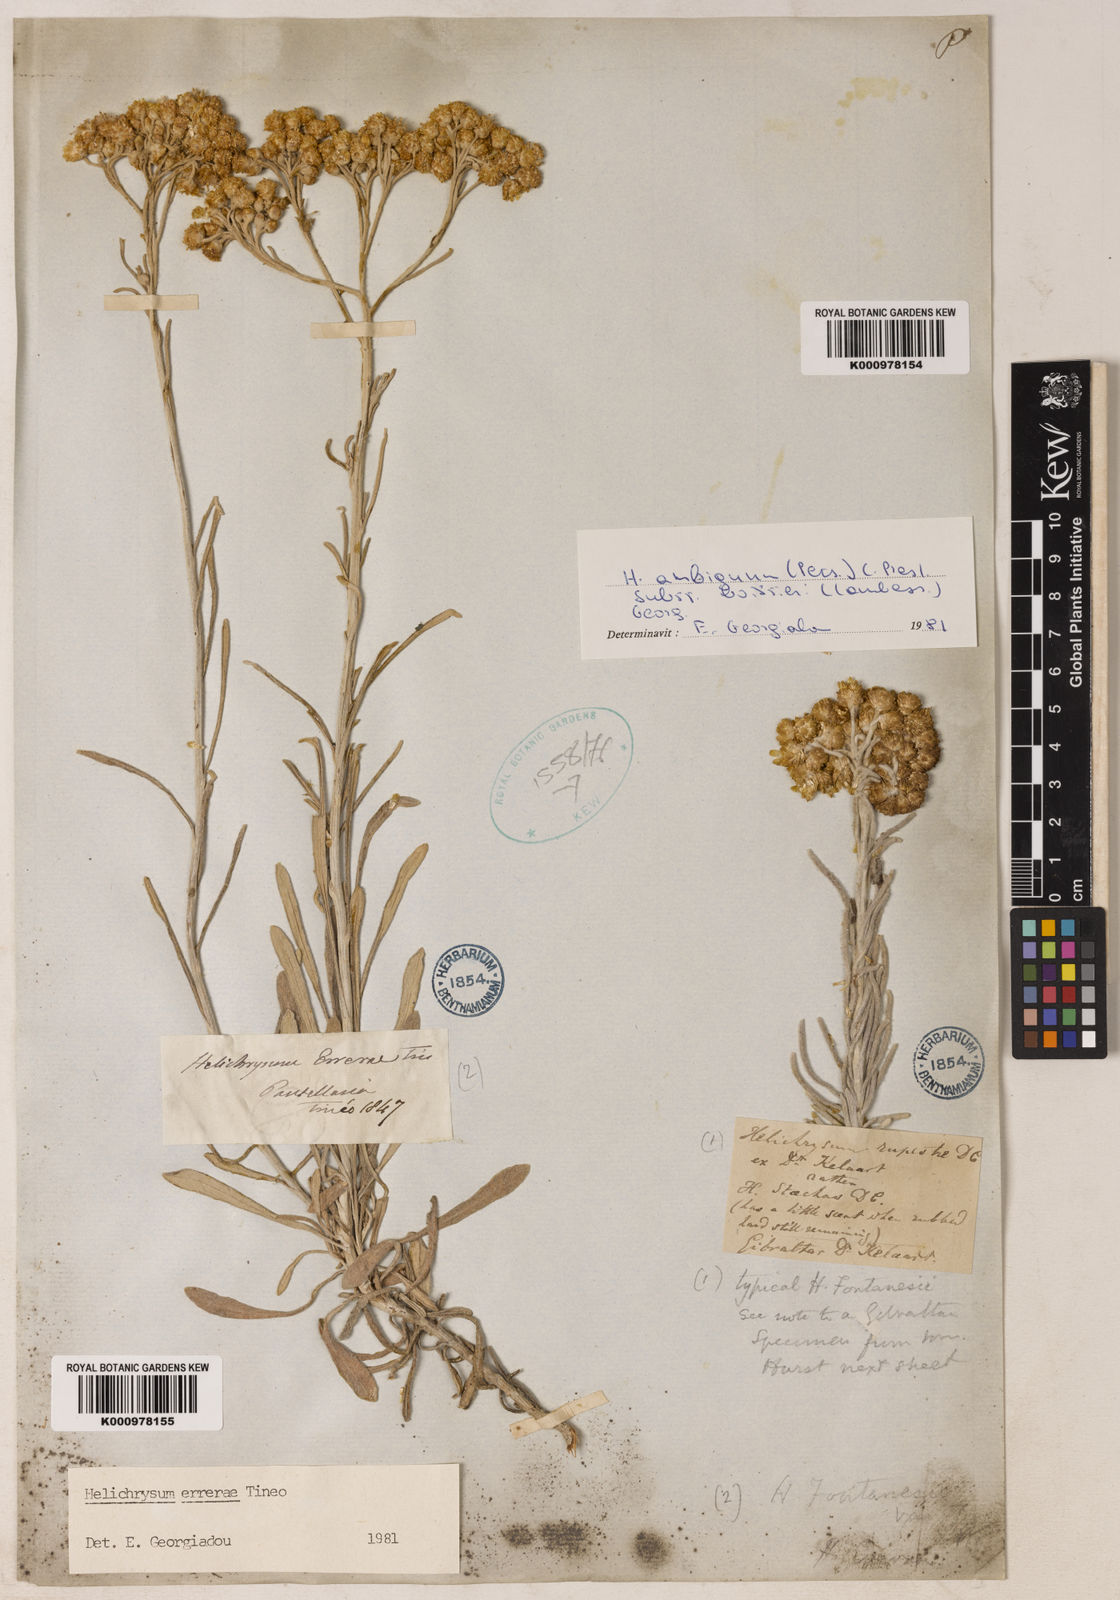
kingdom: Plantae
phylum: Tracheophyta
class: Magnoliopsida
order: Asterales
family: Asteraceae
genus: Helichrysum
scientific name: Helichrysum errerae
